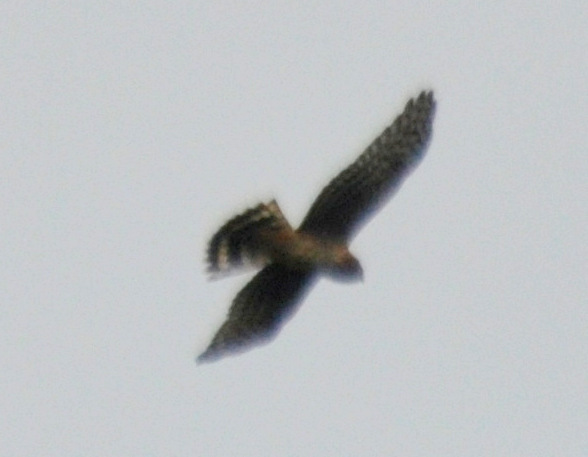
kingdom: Animalia
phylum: Chordata
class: Aves
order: Accipitriformes
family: Accipitridae
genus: Circus
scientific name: Circus cyaneus
